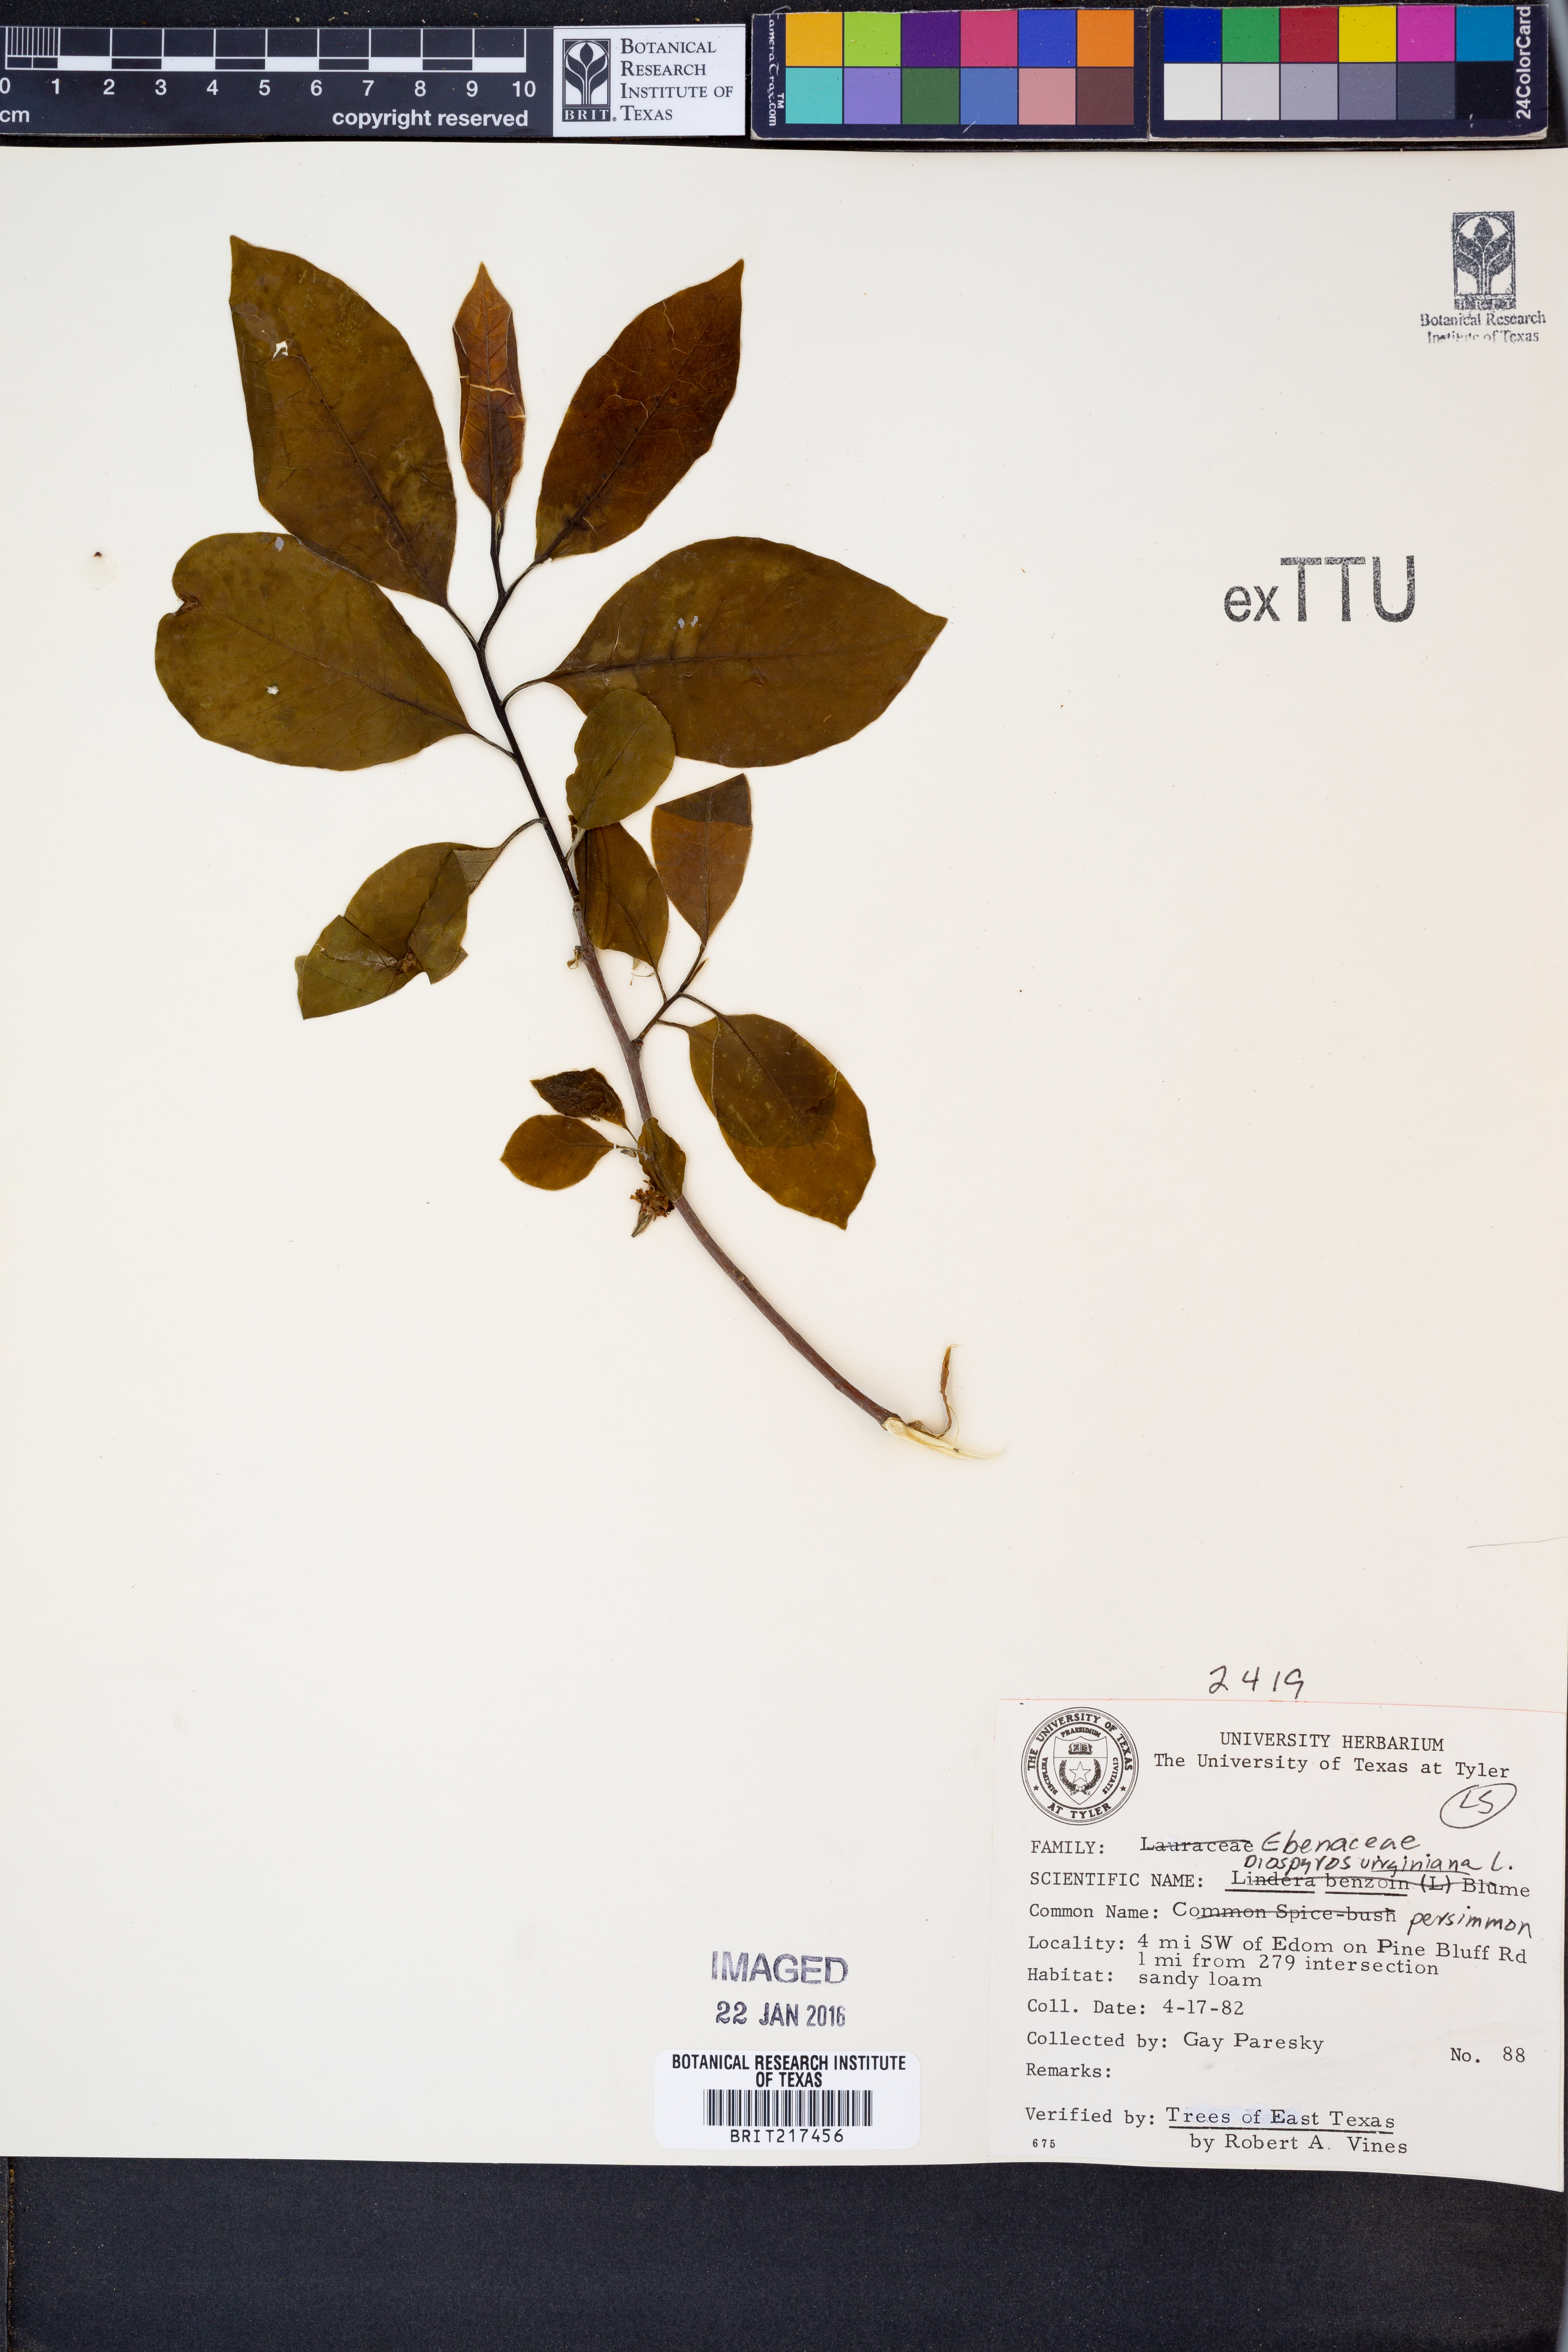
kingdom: Plantae
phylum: Tracheophyta
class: Magnoliopsida
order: Ericales
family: Ebenaceae
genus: Diospyros
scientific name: Diospyros virginiana
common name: Persimmon
